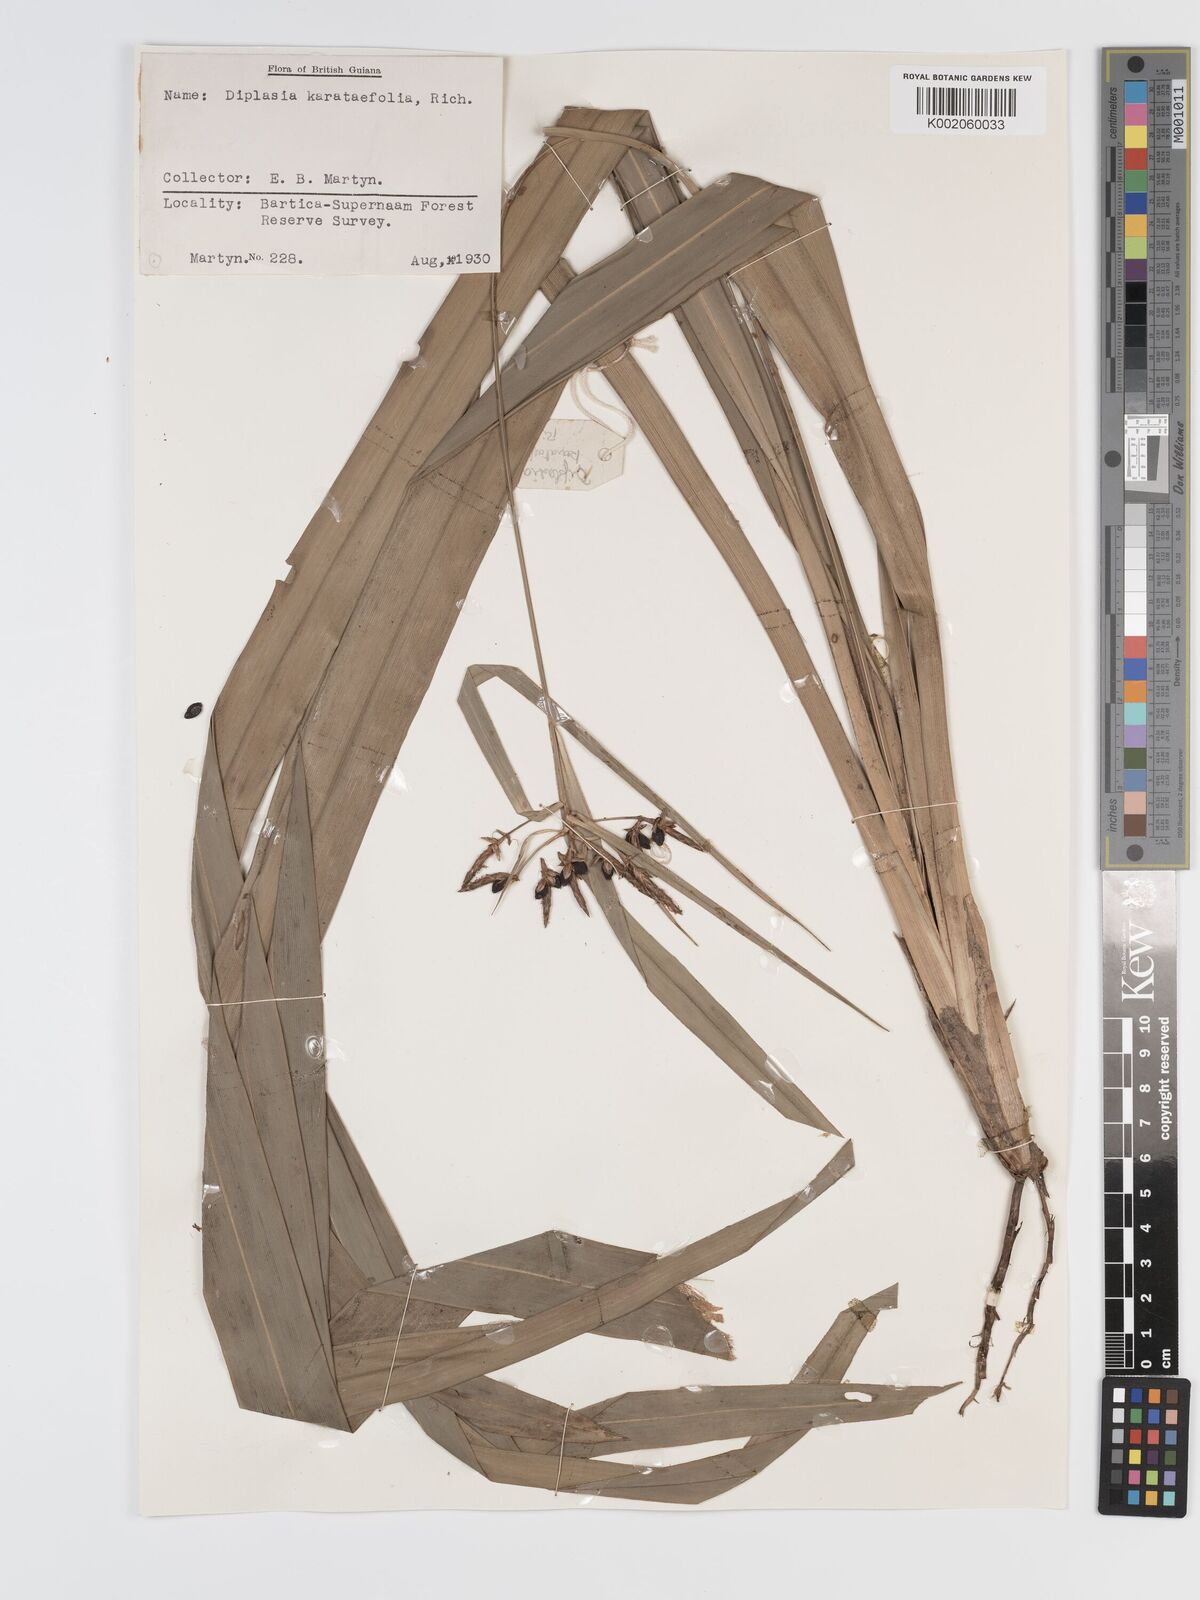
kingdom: Plantae
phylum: Tracheophyta
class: Liliopsida
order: Poales
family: Cyperaceae
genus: Diplasia
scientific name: Diplasia karatifolia
